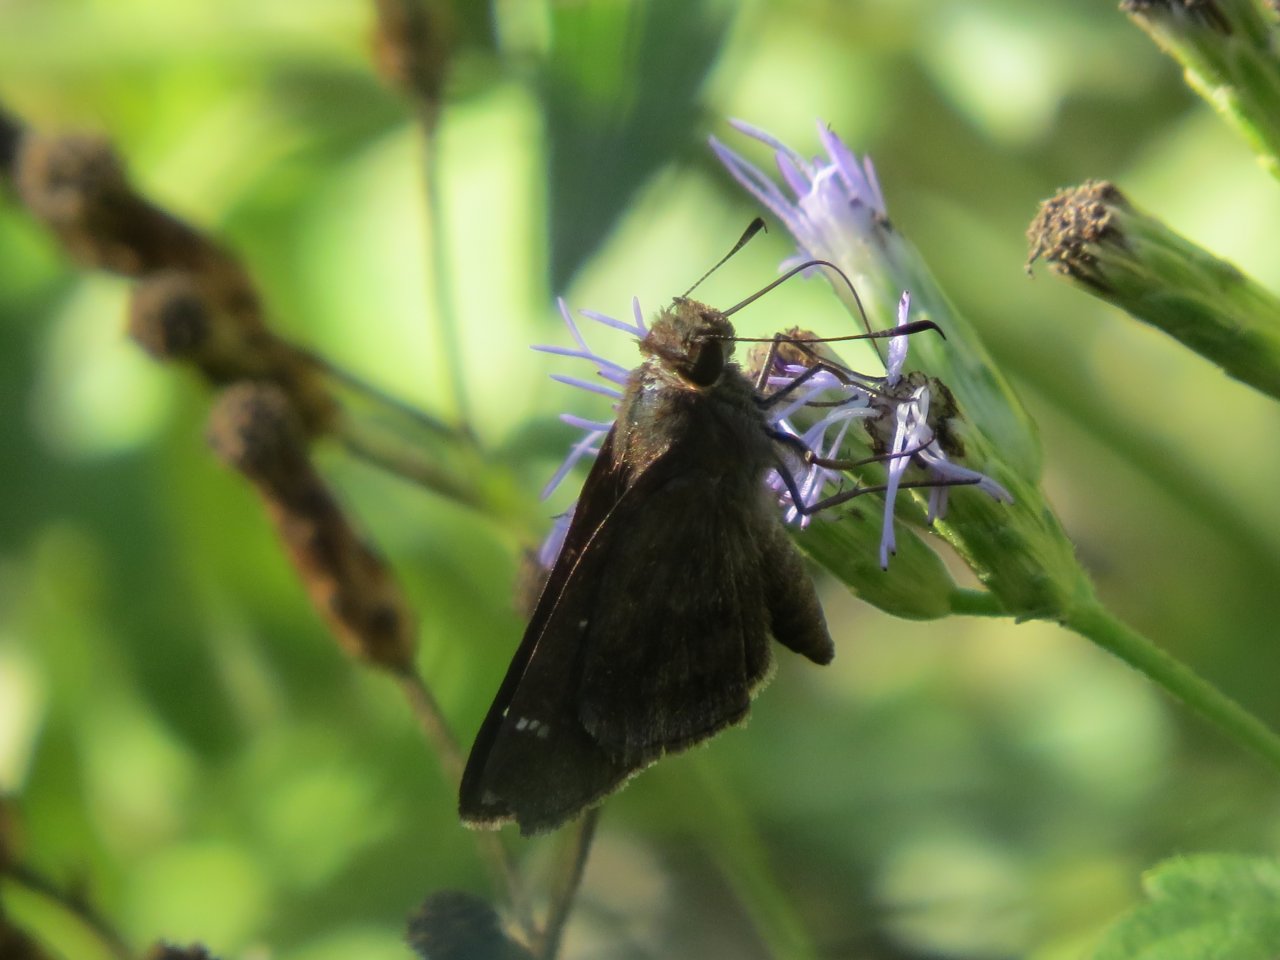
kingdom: Animalia
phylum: Arthropoda
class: Insecta
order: Lepidoptera
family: Hesperiidae
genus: Lerema
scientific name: Lerema accius
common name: Clouded Skipper
